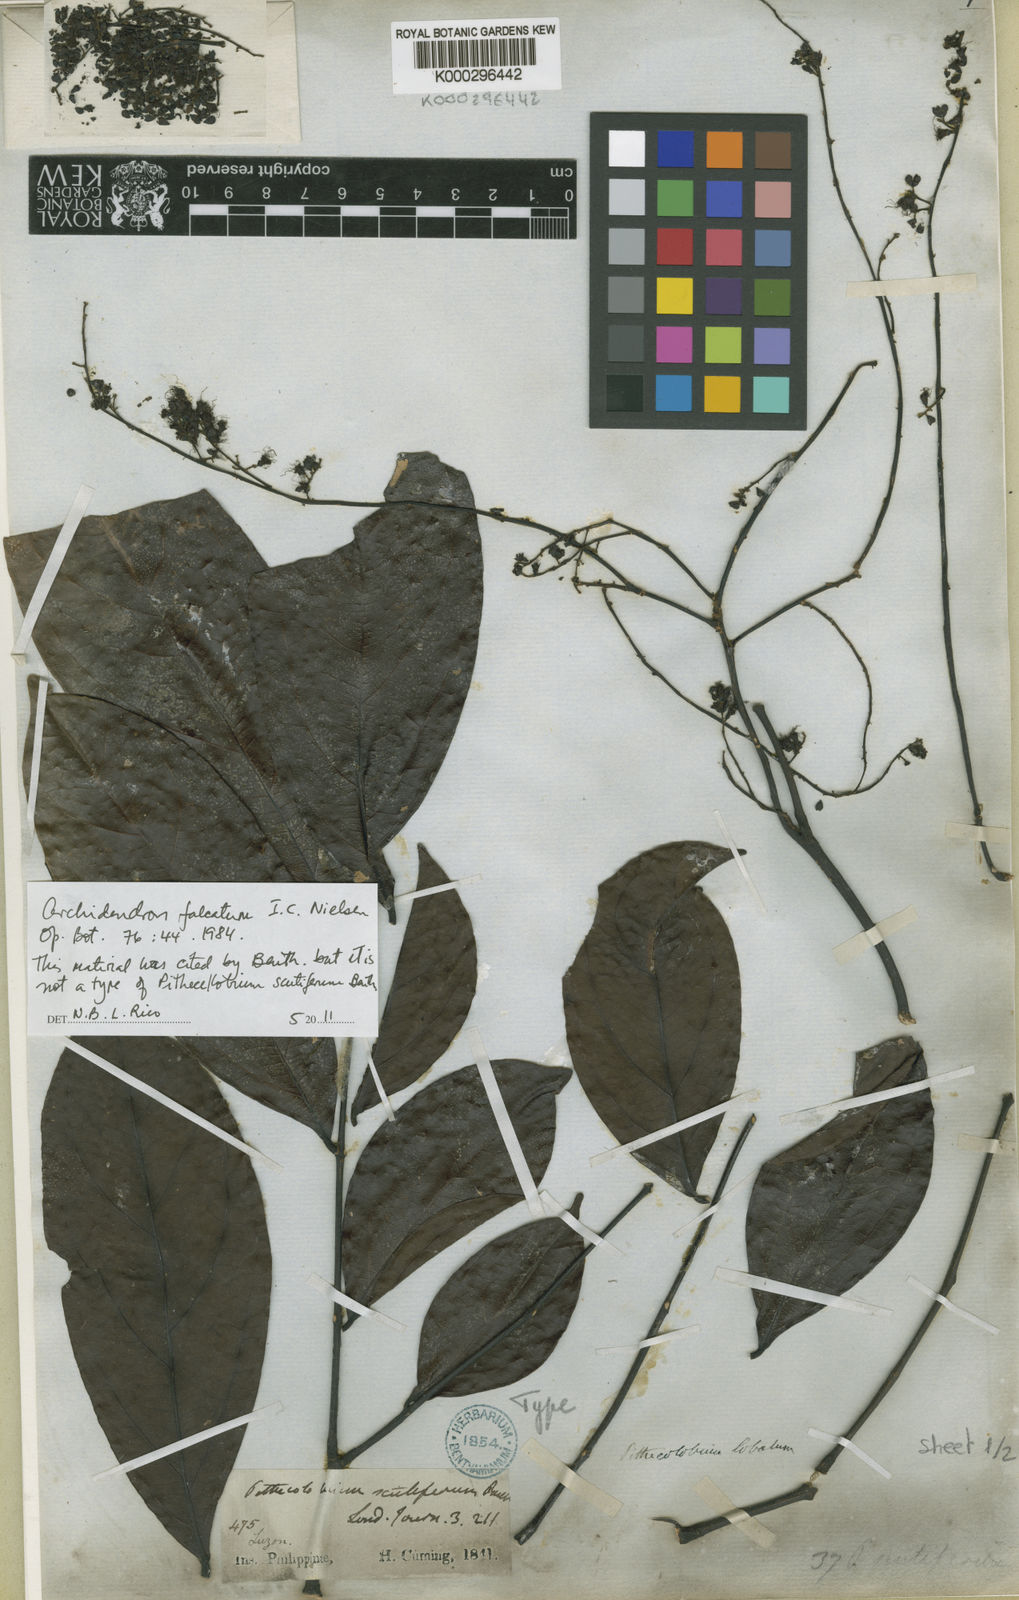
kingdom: Plantae
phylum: Tracheophyta
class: Magnoliopsida
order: Fabales
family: Fabaceae
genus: Archidendron
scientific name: Archidendron falcatum
